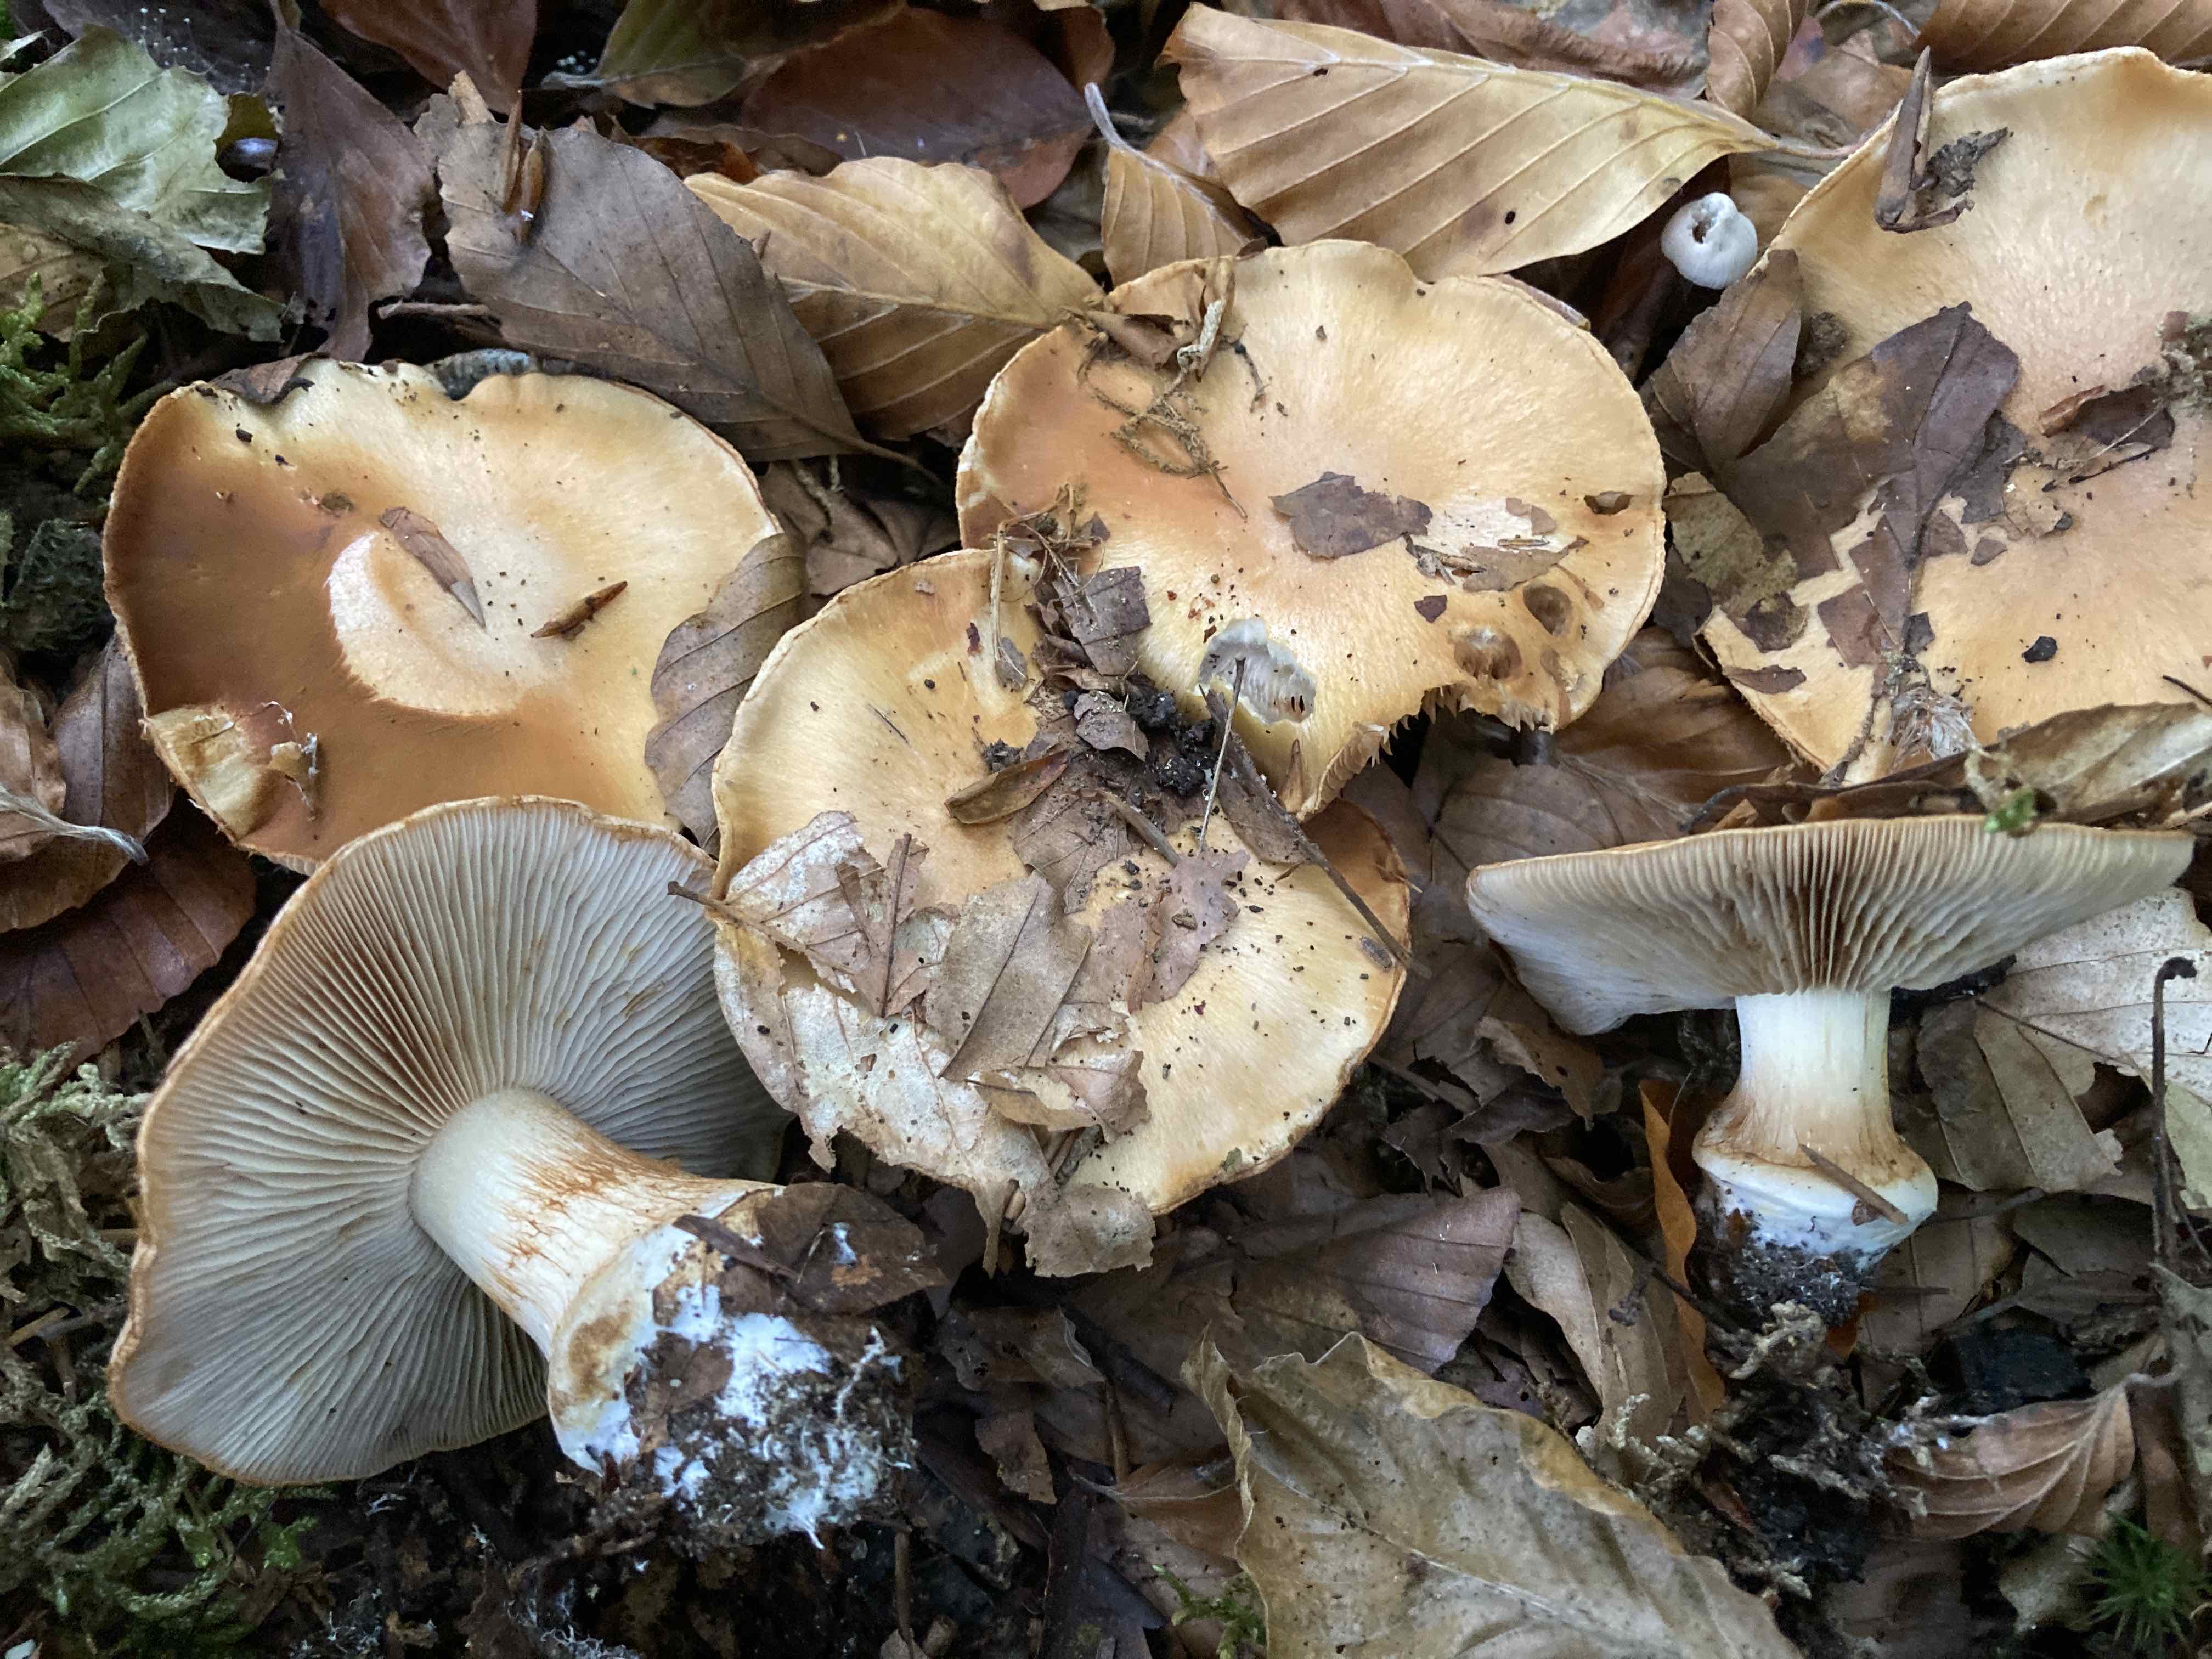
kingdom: Fungi
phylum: Basidiomycota
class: Agaricomycetes
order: Agaricales
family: Cortinariaceae
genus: Thaxterogaster
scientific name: Thaxterogaster talus
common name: knogle-slørhat
